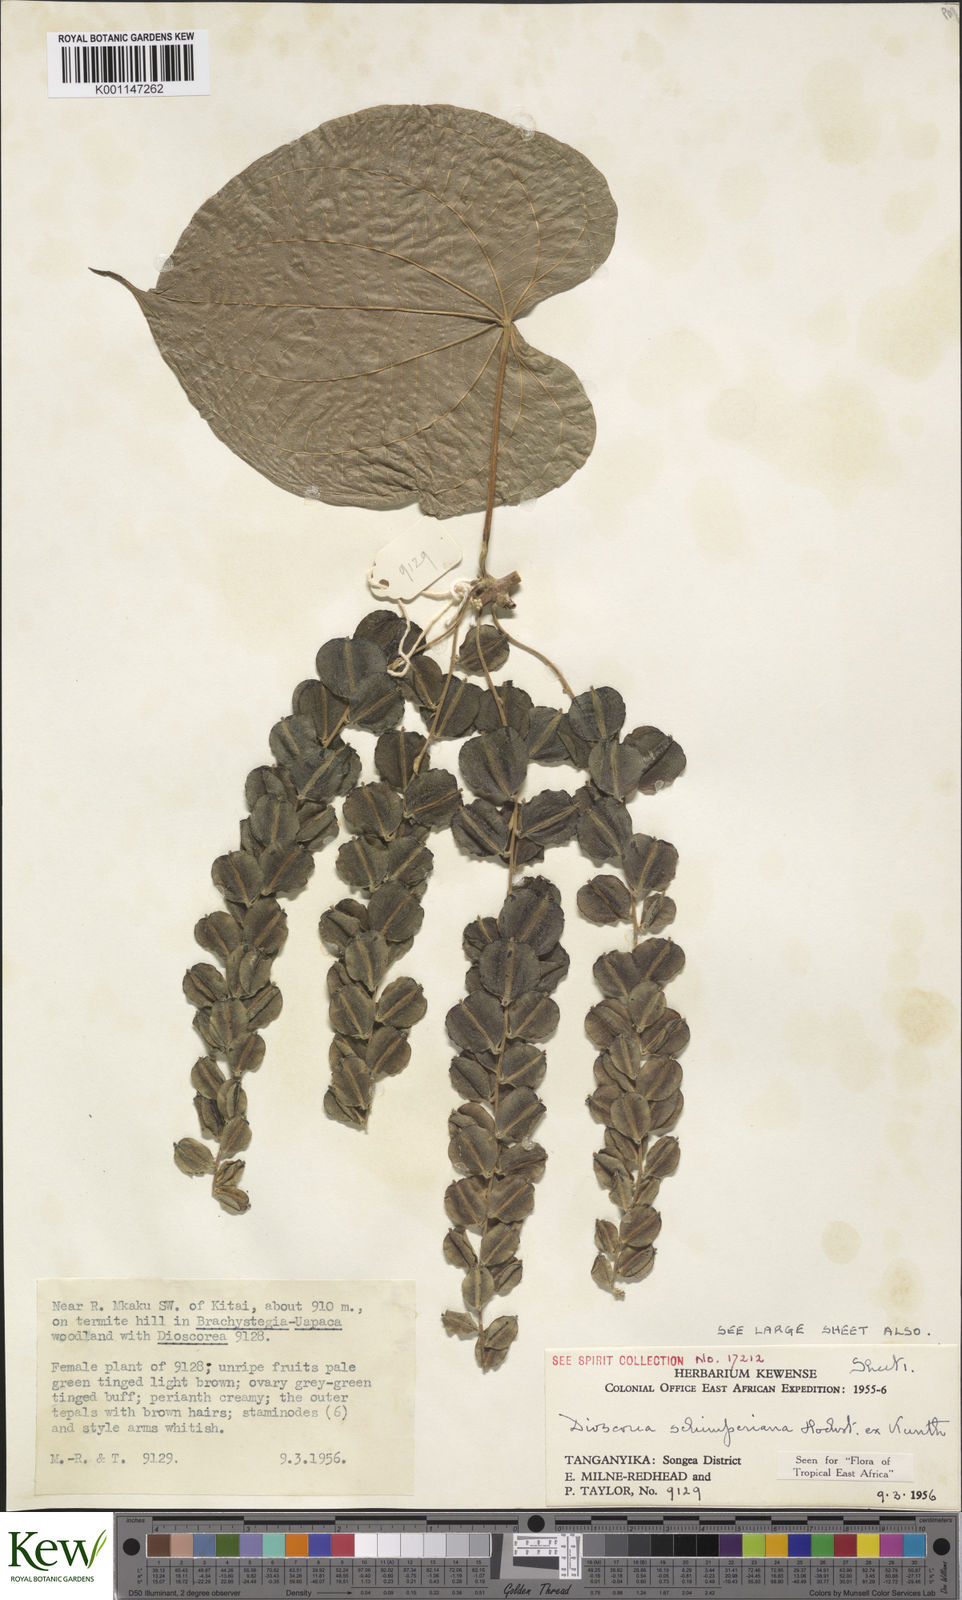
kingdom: Plantae
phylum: Tracheophyta
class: Liliopsida
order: Dioscoreales
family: Dioscoreaceae
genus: Dioscorea
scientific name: Dioscorea schimperiana
